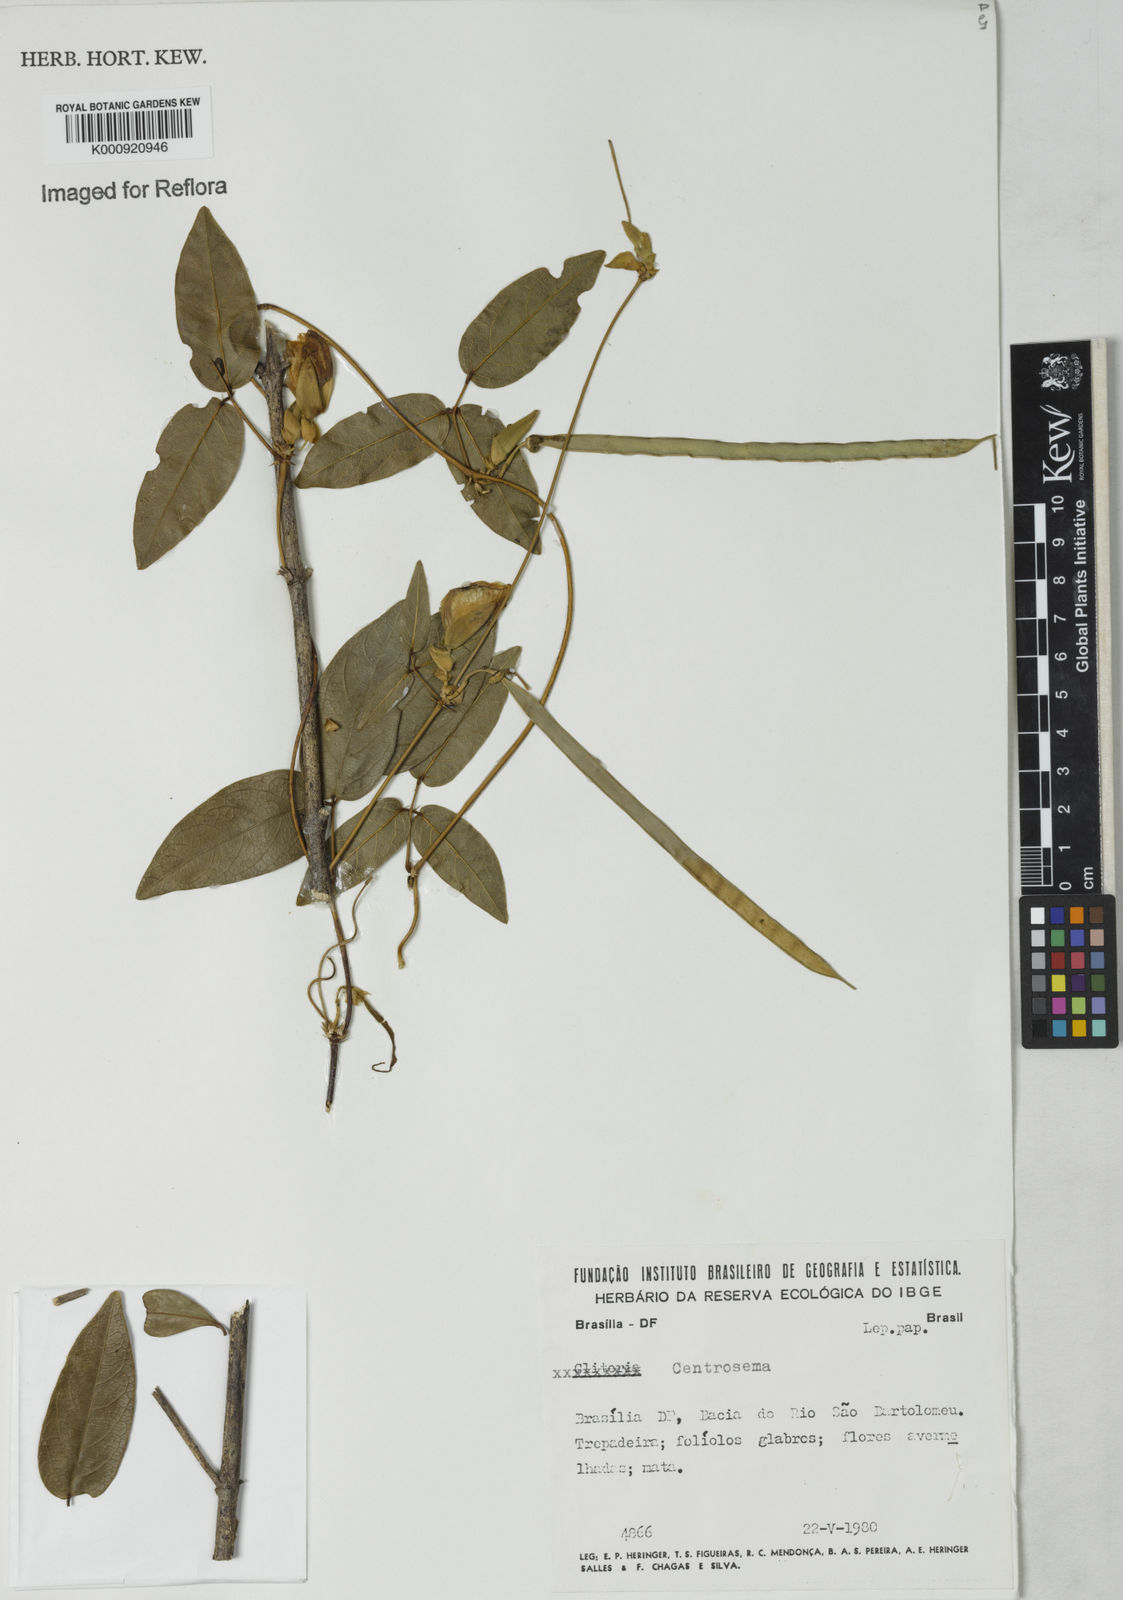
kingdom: Plantae
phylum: Tracheophyta
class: Magnoliopsida
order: Fabales
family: Fabaceae
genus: Centrosema
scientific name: Centrosema
